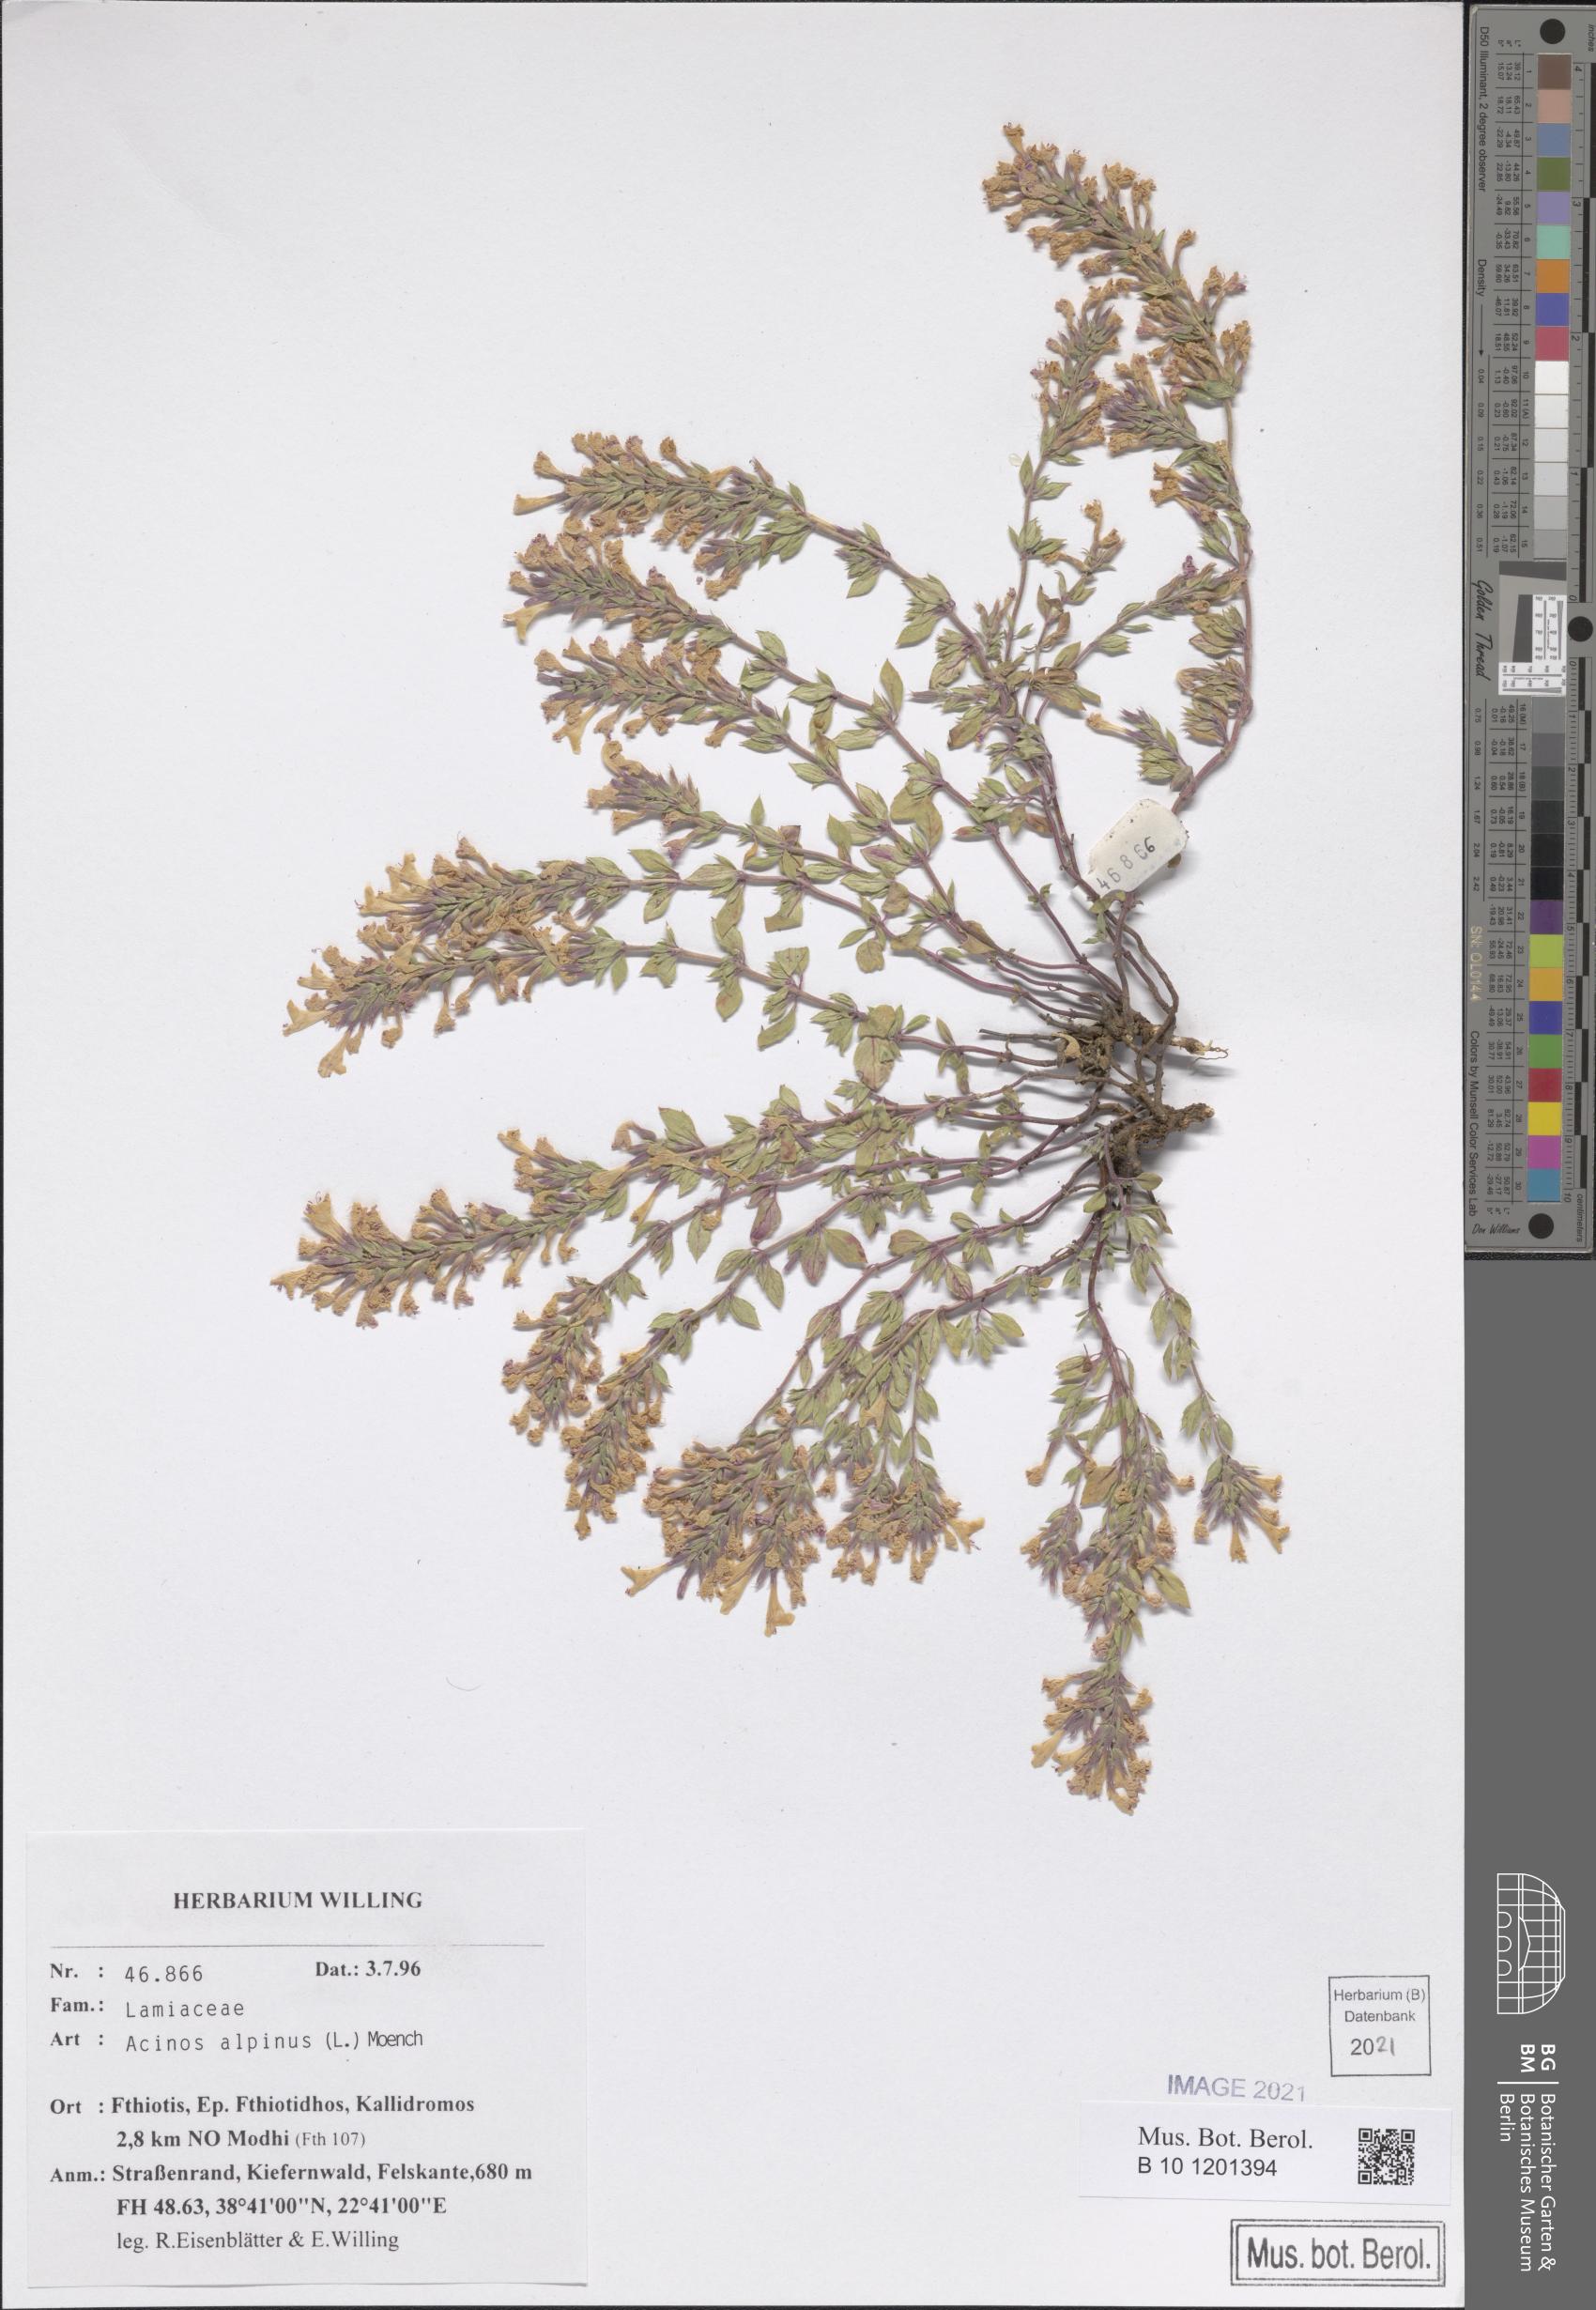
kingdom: Plantae
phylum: Tracheophyta
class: Magnoliopsida
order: Lamiales
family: Lamiaceae
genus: Clinopodium
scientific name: Clinopodium alpinum
